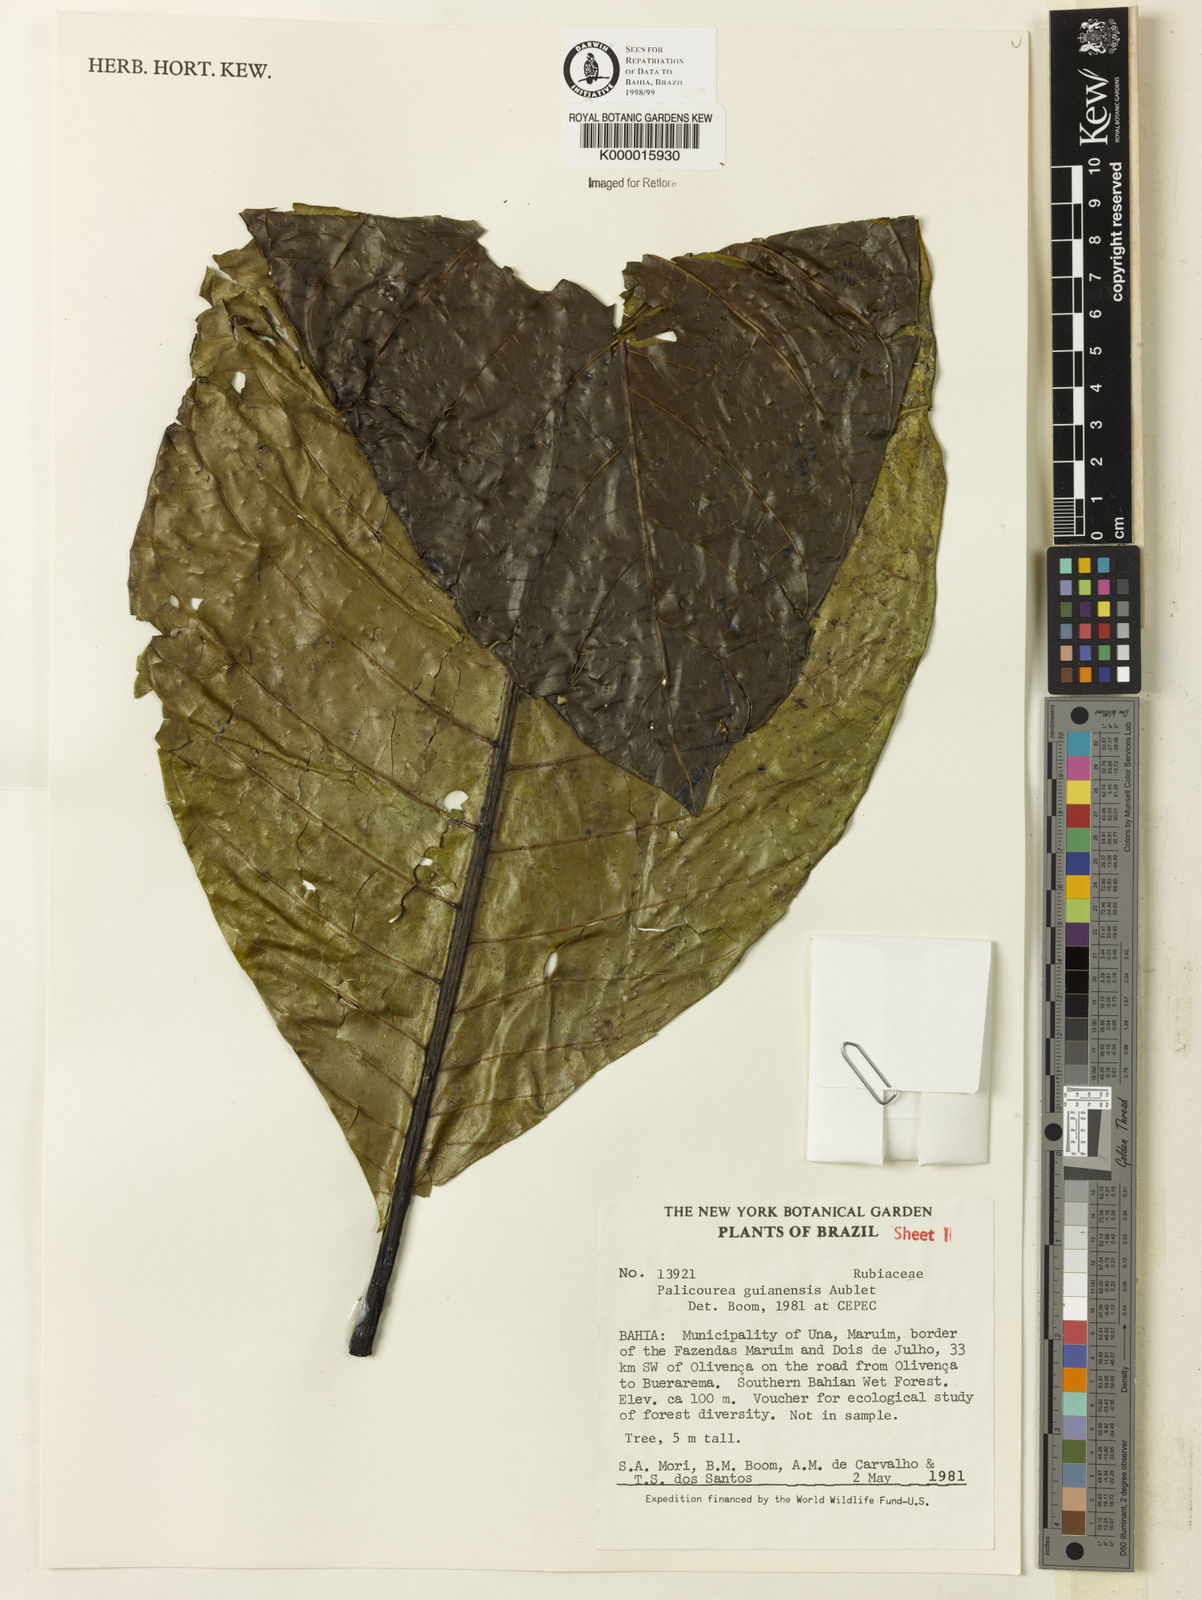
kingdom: Plantae
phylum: Tracheophyta
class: Magnoliopsida
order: Gentianales
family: Rubiaceae
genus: Palicourea
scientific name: Palicourea guianensis
